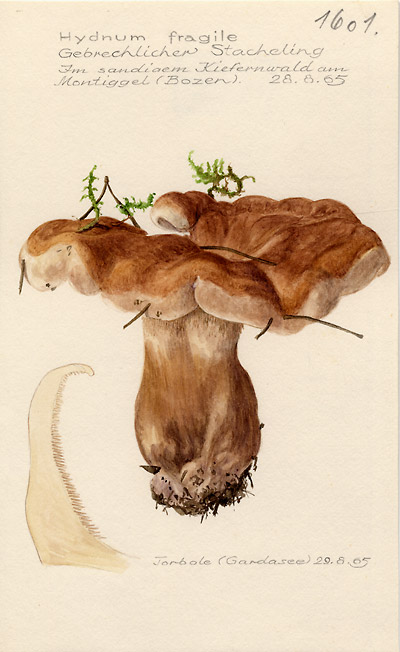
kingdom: Fungi
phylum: Basidiomycota
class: Agaricomycetes
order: Thelephorales
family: Thelephoraceae
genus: Phellodon
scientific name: Phellodon fuligineoalbus
